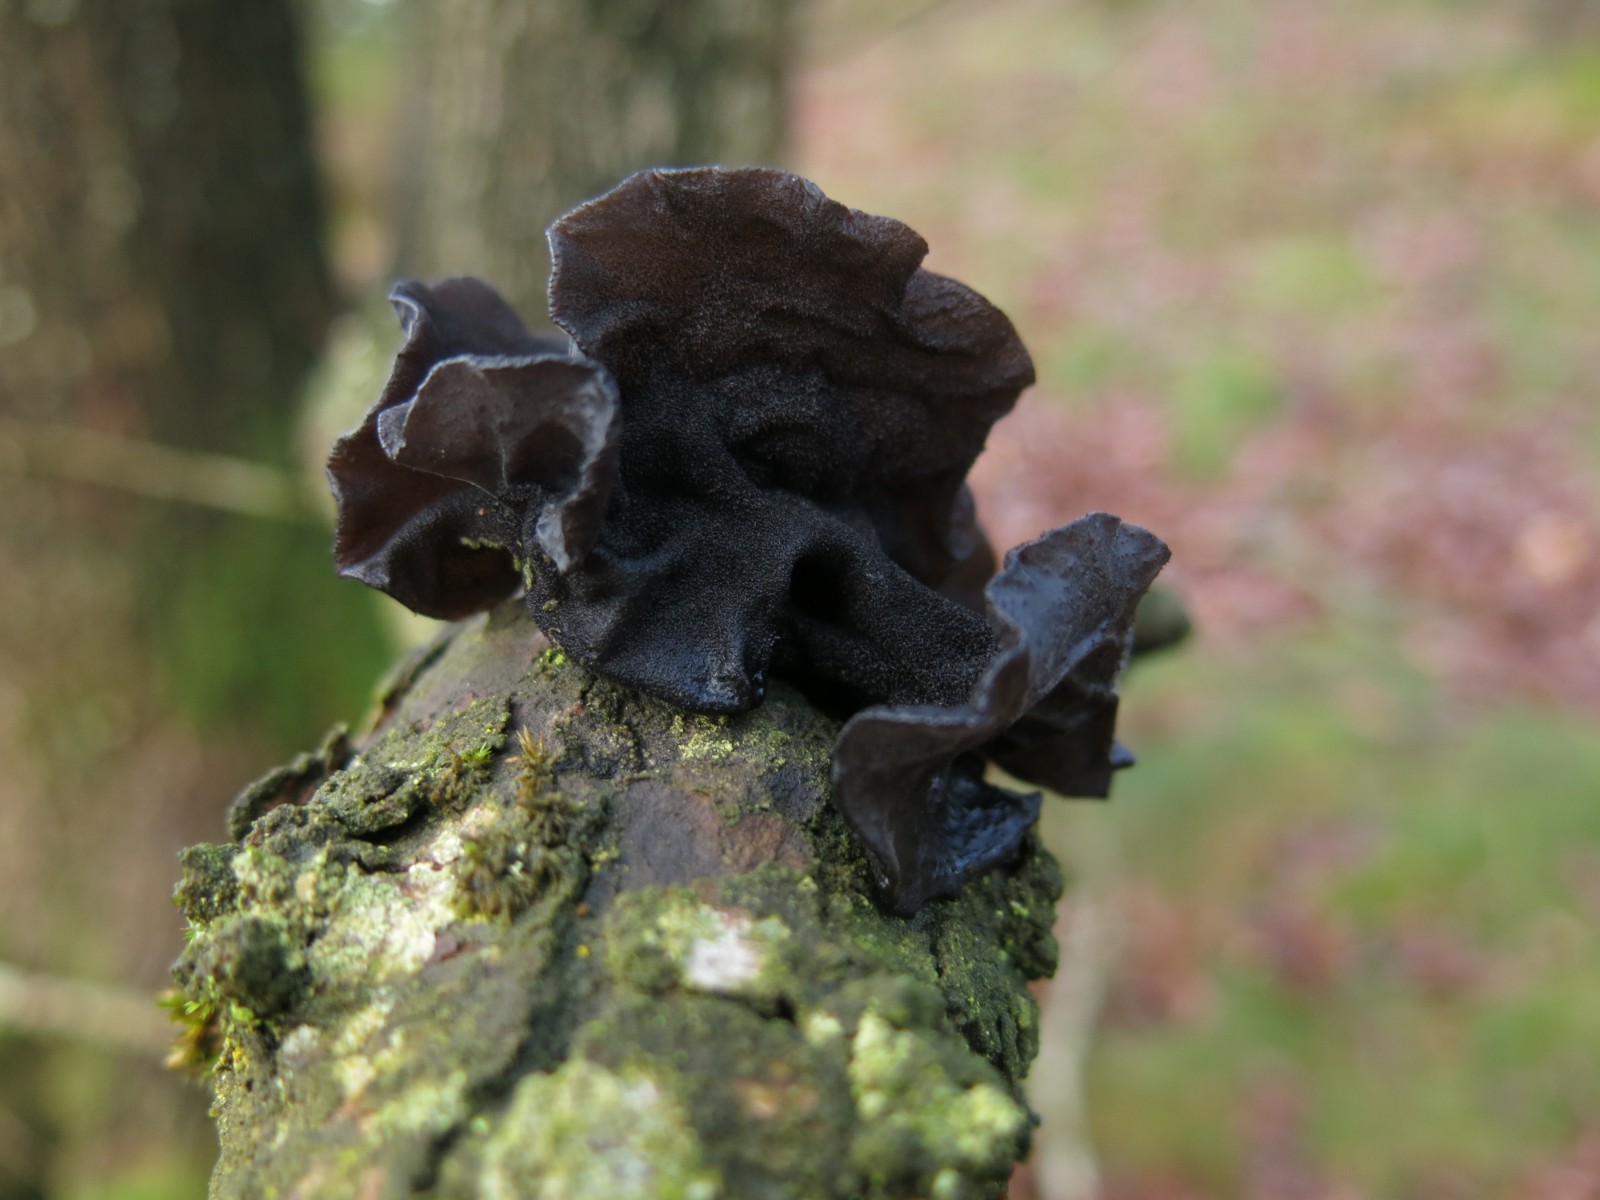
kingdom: Fungi
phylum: Basidiomycota
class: Agaricomycetes
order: Auriculariales
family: Auriculariaceae
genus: Exidia
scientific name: Exidia glandulosa
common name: ege-bævretop
